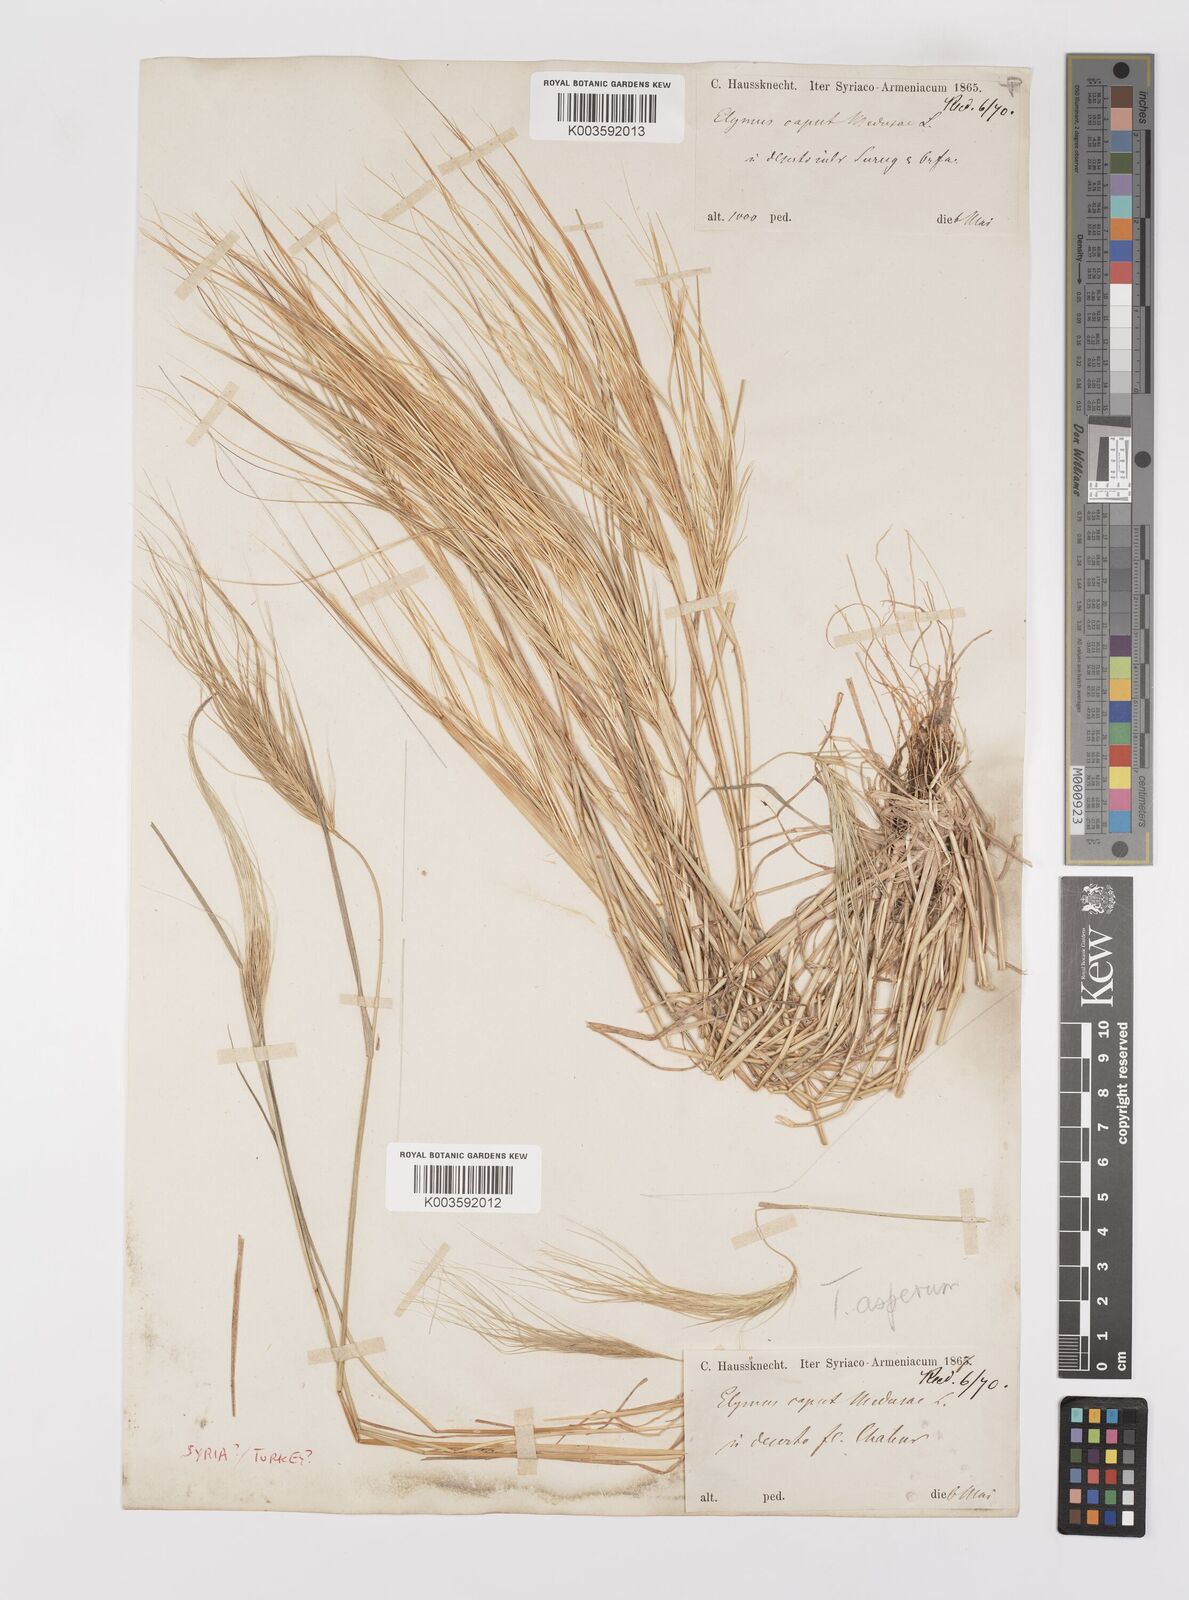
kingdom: Plantae
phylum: Tracheophyta
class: Liliopsida
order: Poales
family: Poaceae
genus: Taeniatherum
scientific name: Taeniatherum caput-medusae
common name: Medusahead
